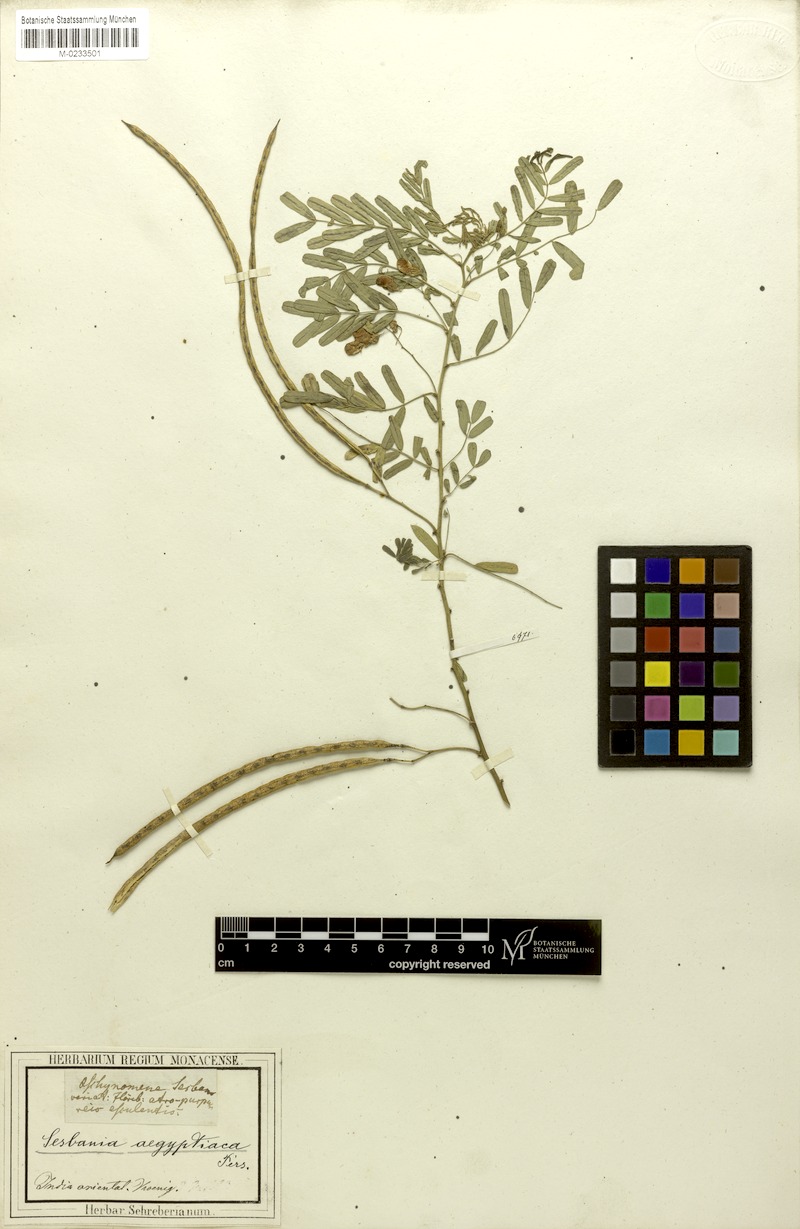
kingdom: Plantae
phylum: Tracheophyta
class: Magnoliopsida
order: Fabales
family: Fabaceae
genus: Sesbania
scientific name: Sesbania sesban
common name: Egyptian sesban
